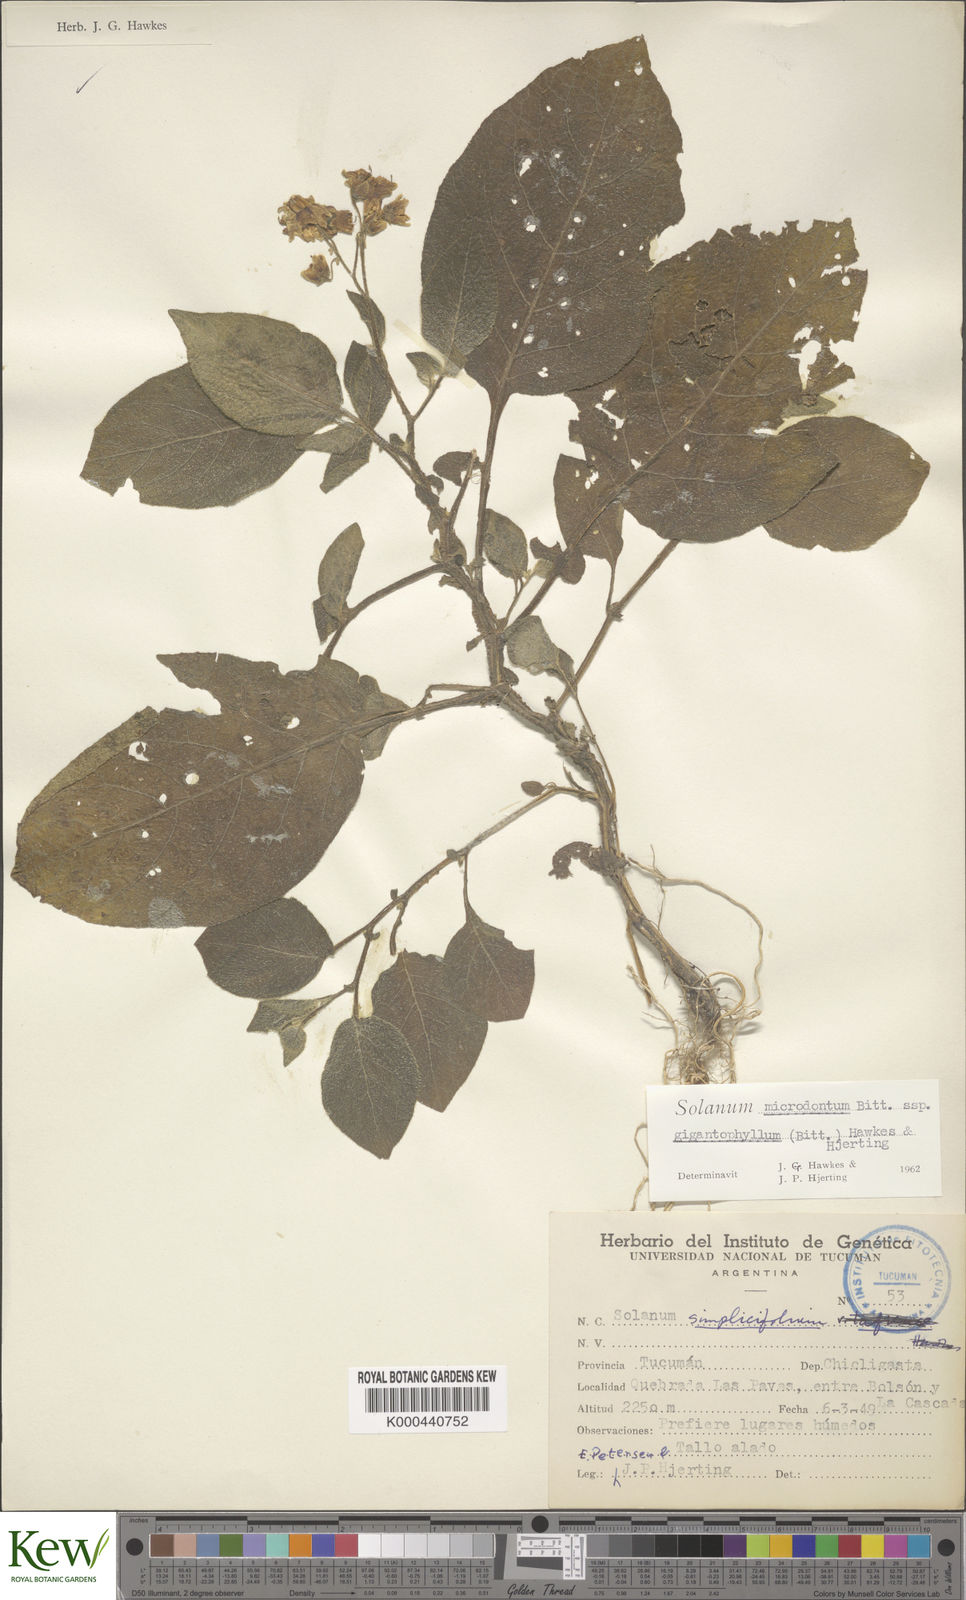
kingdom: Plantae
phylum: Tracheophyta
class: Magnoliopsida
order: Solanales
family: Solanaceae
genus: Solanum
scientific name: Solanum microdontum
